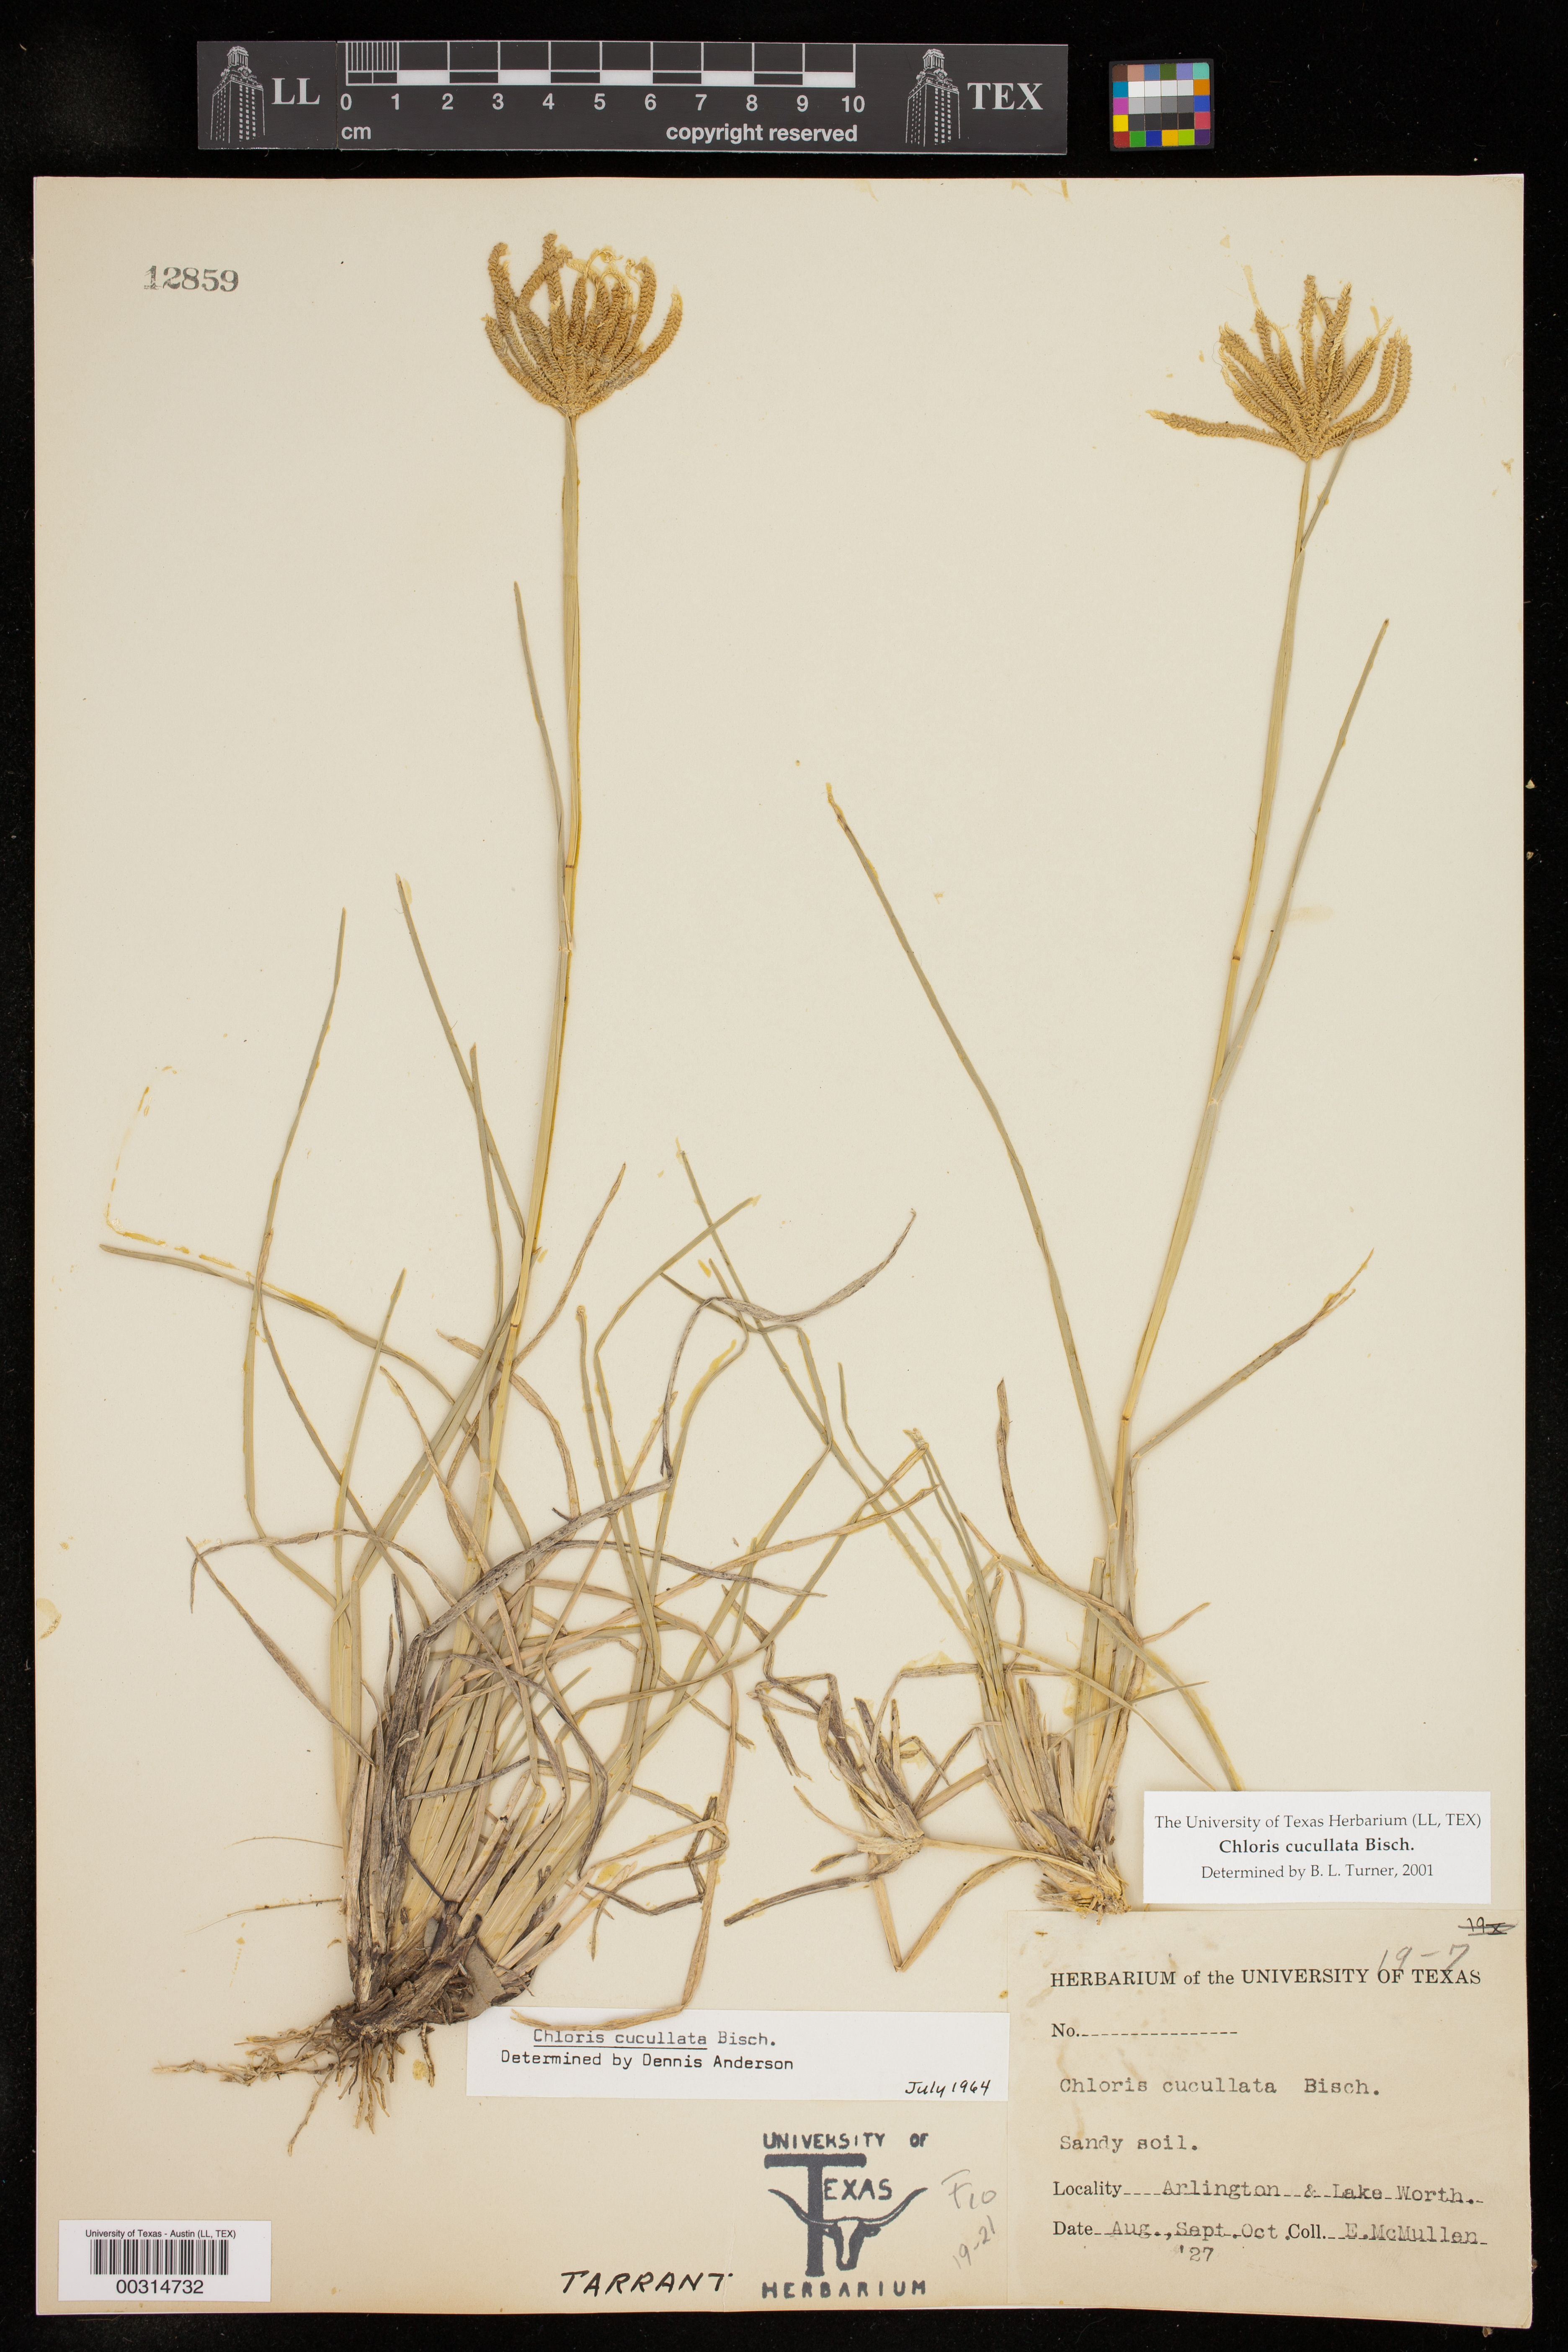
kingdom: Plantae
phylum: Tracheophyta
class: Liliopsida
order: Poales
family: Poaceae
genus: Chloris
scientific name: Chloris cucullata
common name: Hooded windmill grass
